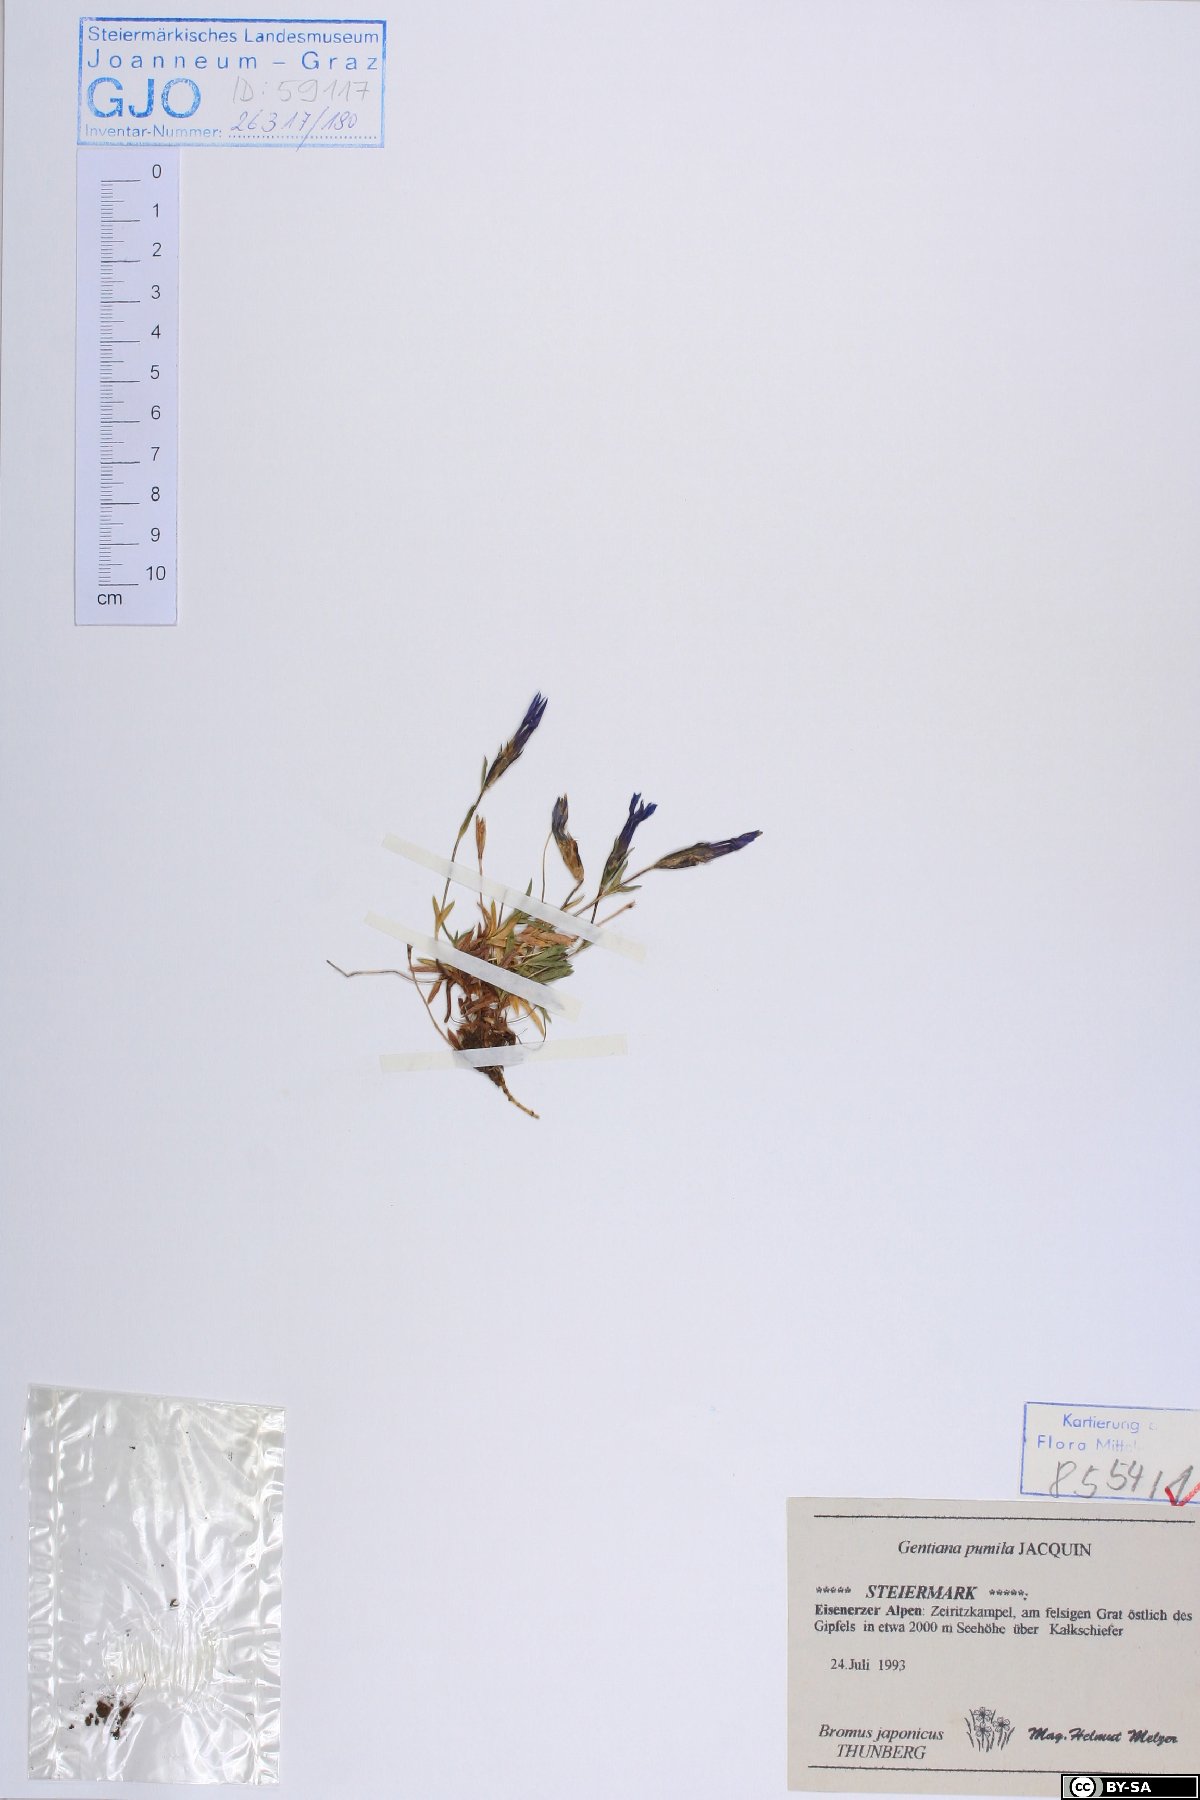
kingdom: Plantae
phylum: Tracheophyta
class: Magnoliopsida
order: Gentianales
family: Gentianaceae
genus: Gentiana
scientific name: Gentiana pumila
